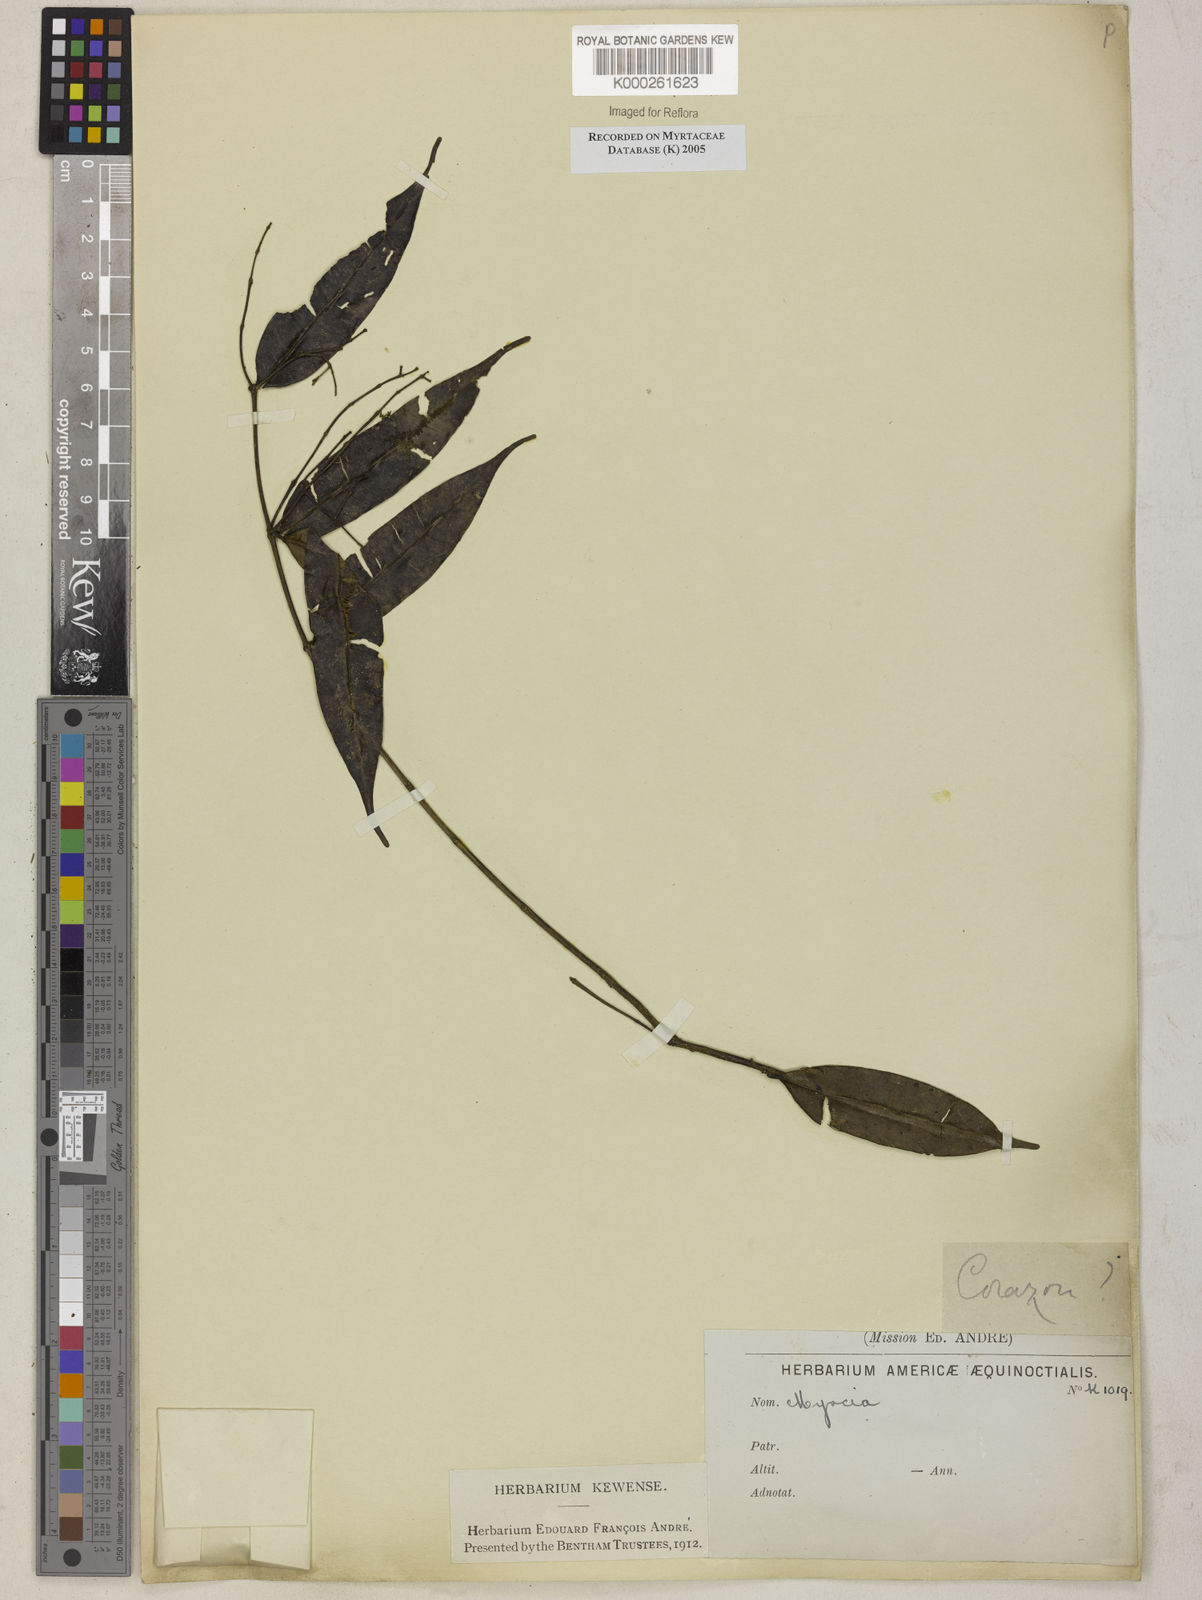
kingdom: Plantae
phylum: Tracheophyta
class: Magnoliopsida
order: Myrtales
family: Myrtaceae
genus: Myrcia
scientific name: Myrcia
